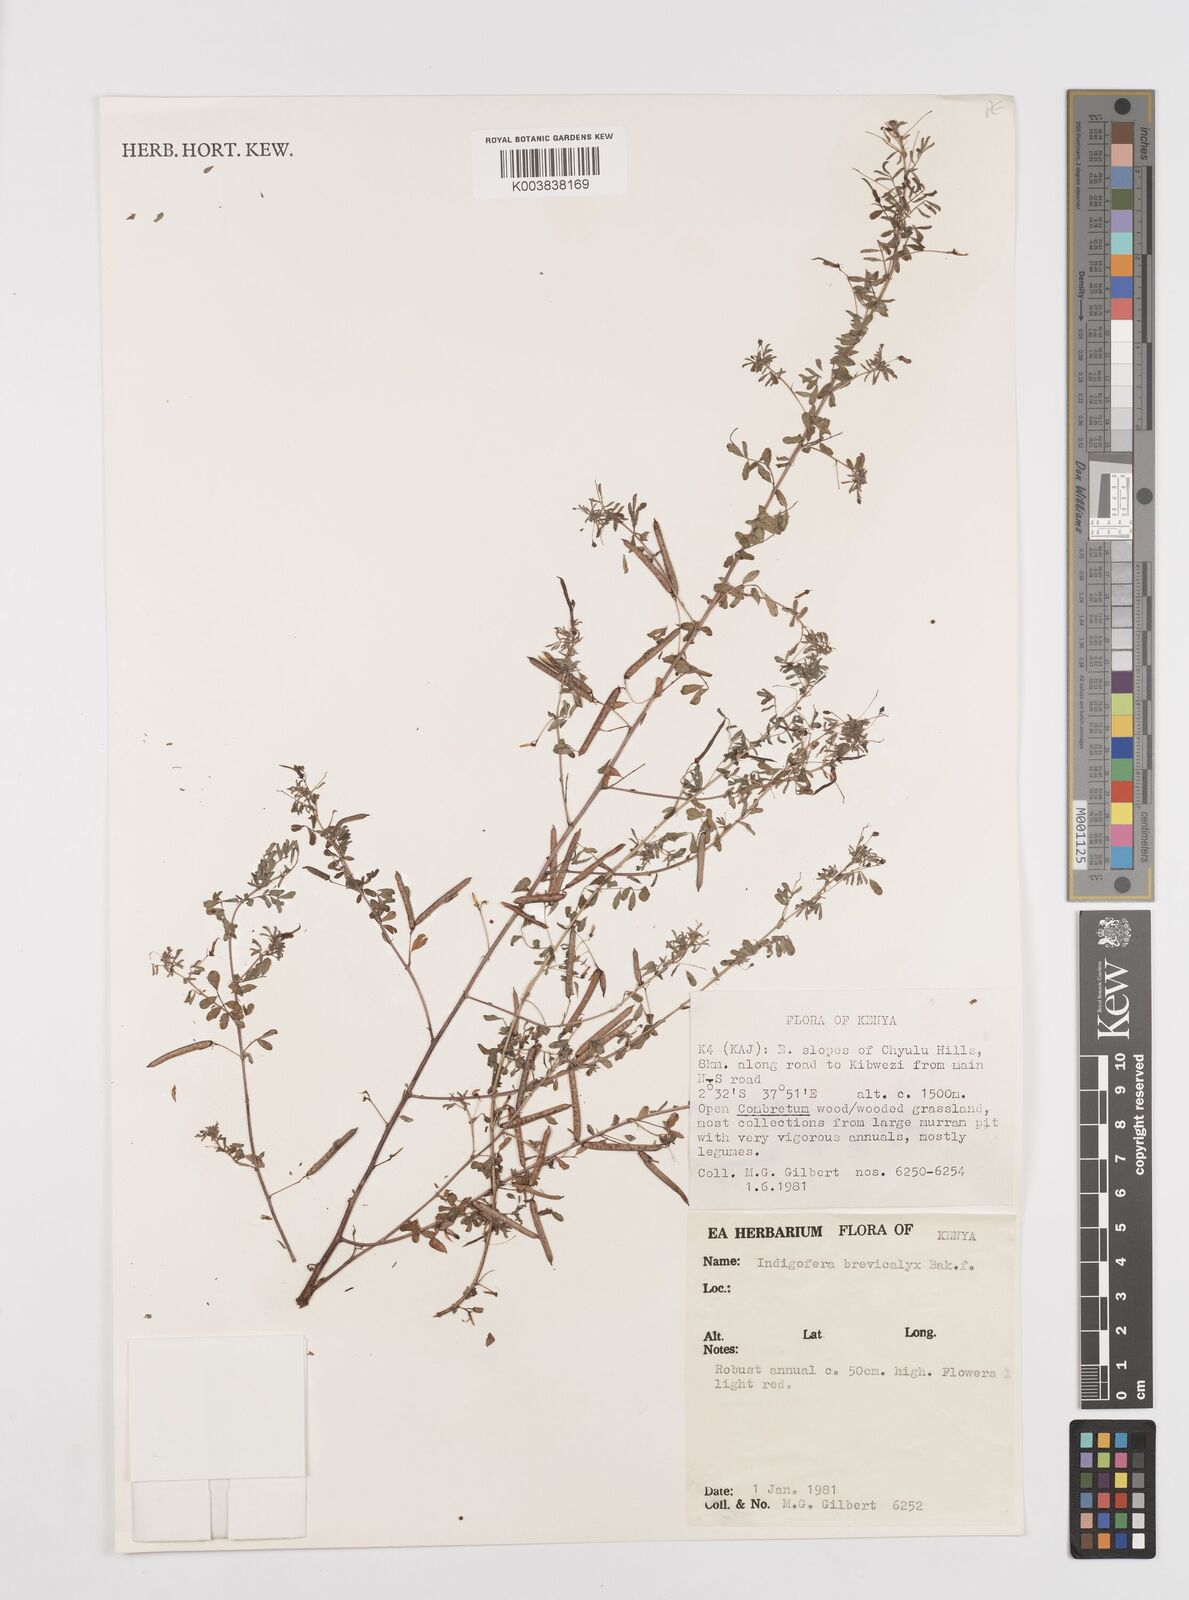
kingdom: Plantae
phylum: Tracheophyta
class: Magnoliopsida
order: Fabales
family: Fabaceae
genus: Indigofera
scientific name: Indigofera brevicalyx
